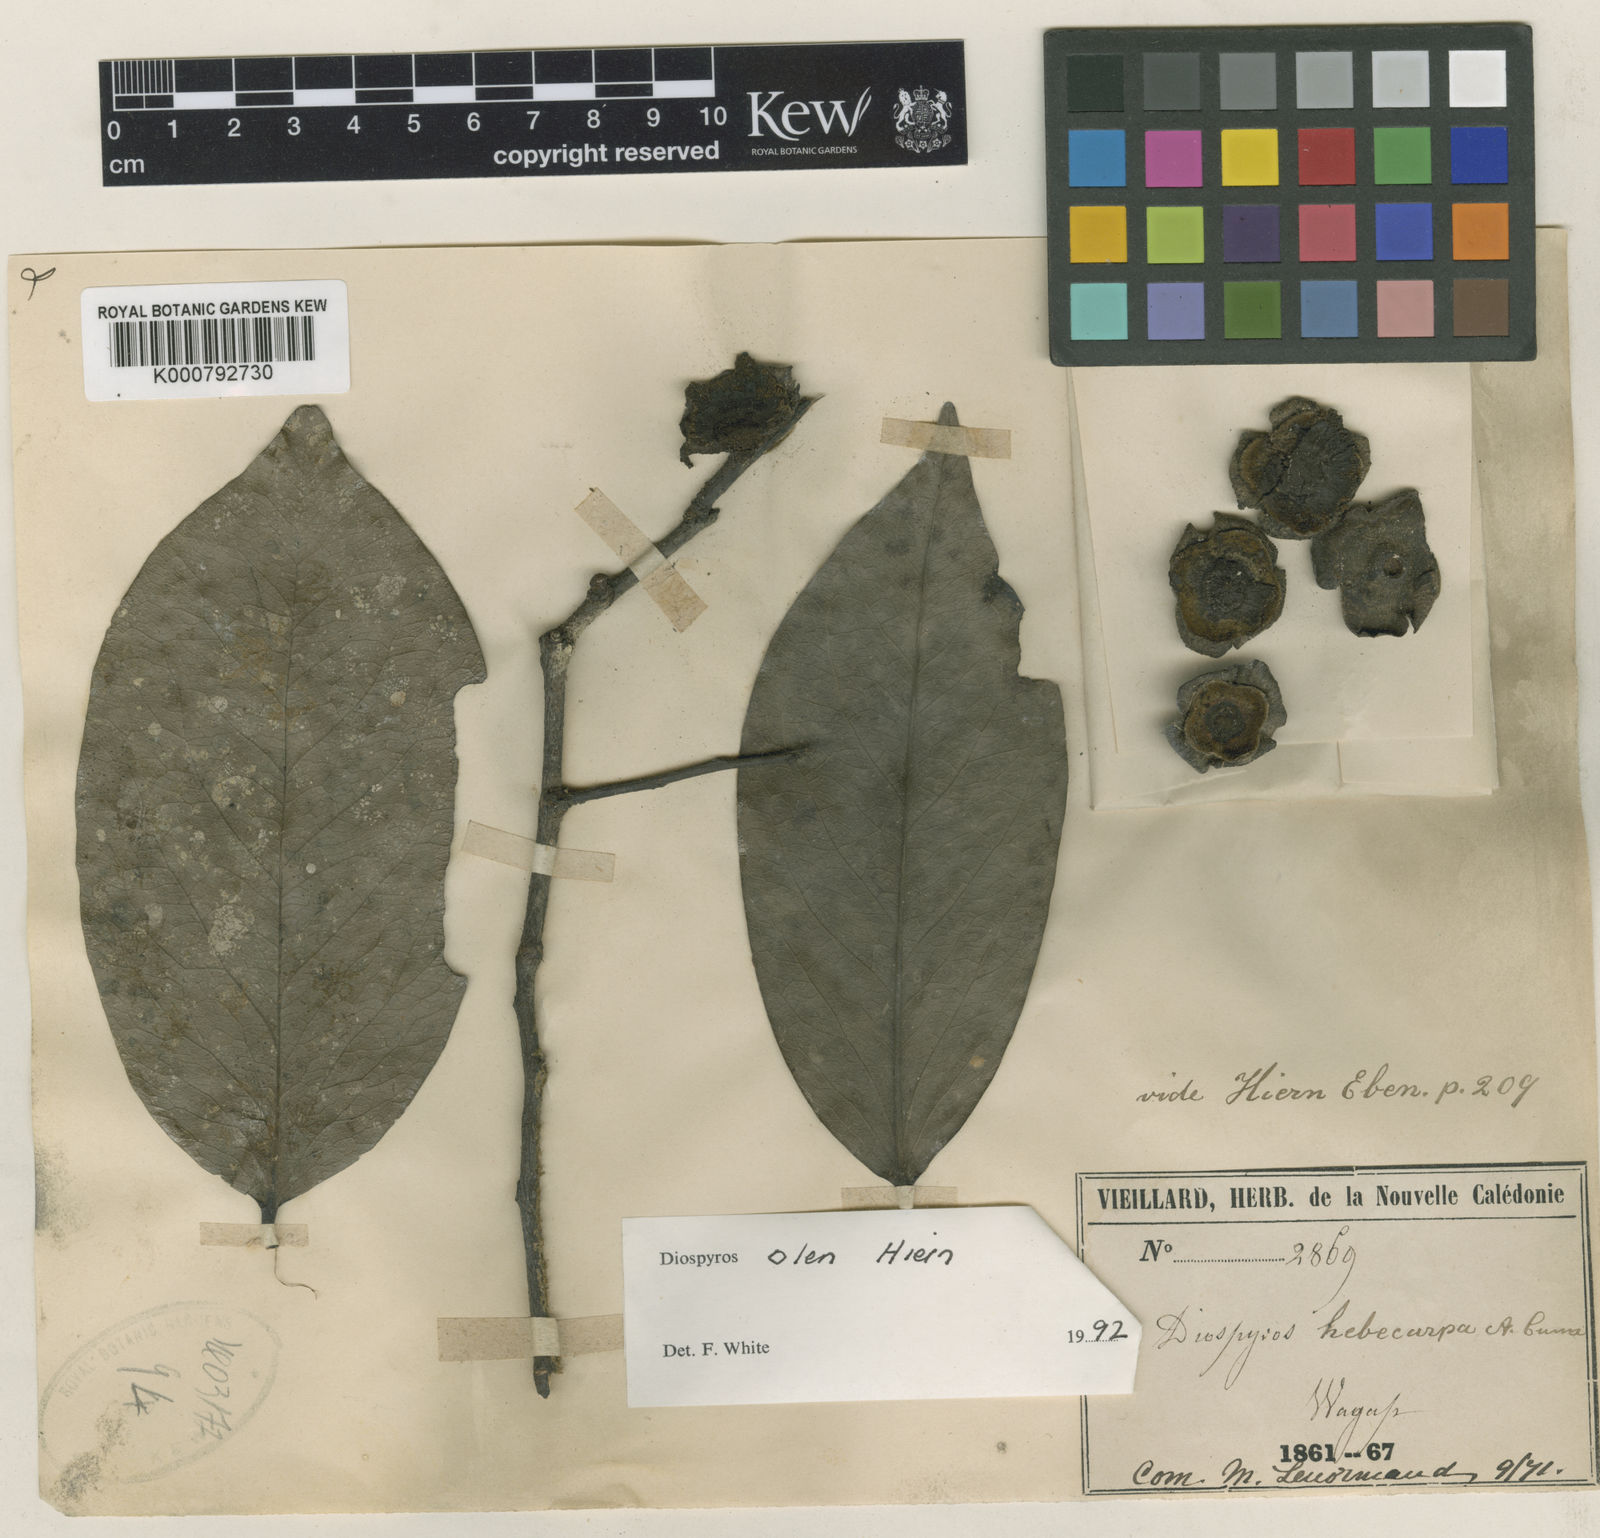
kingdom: Plantae
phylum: Tracheophyta
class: Magnoliopsida
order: Ericales
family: Ebenaceae
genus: Diospyros
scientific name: Diospyros samoensis
